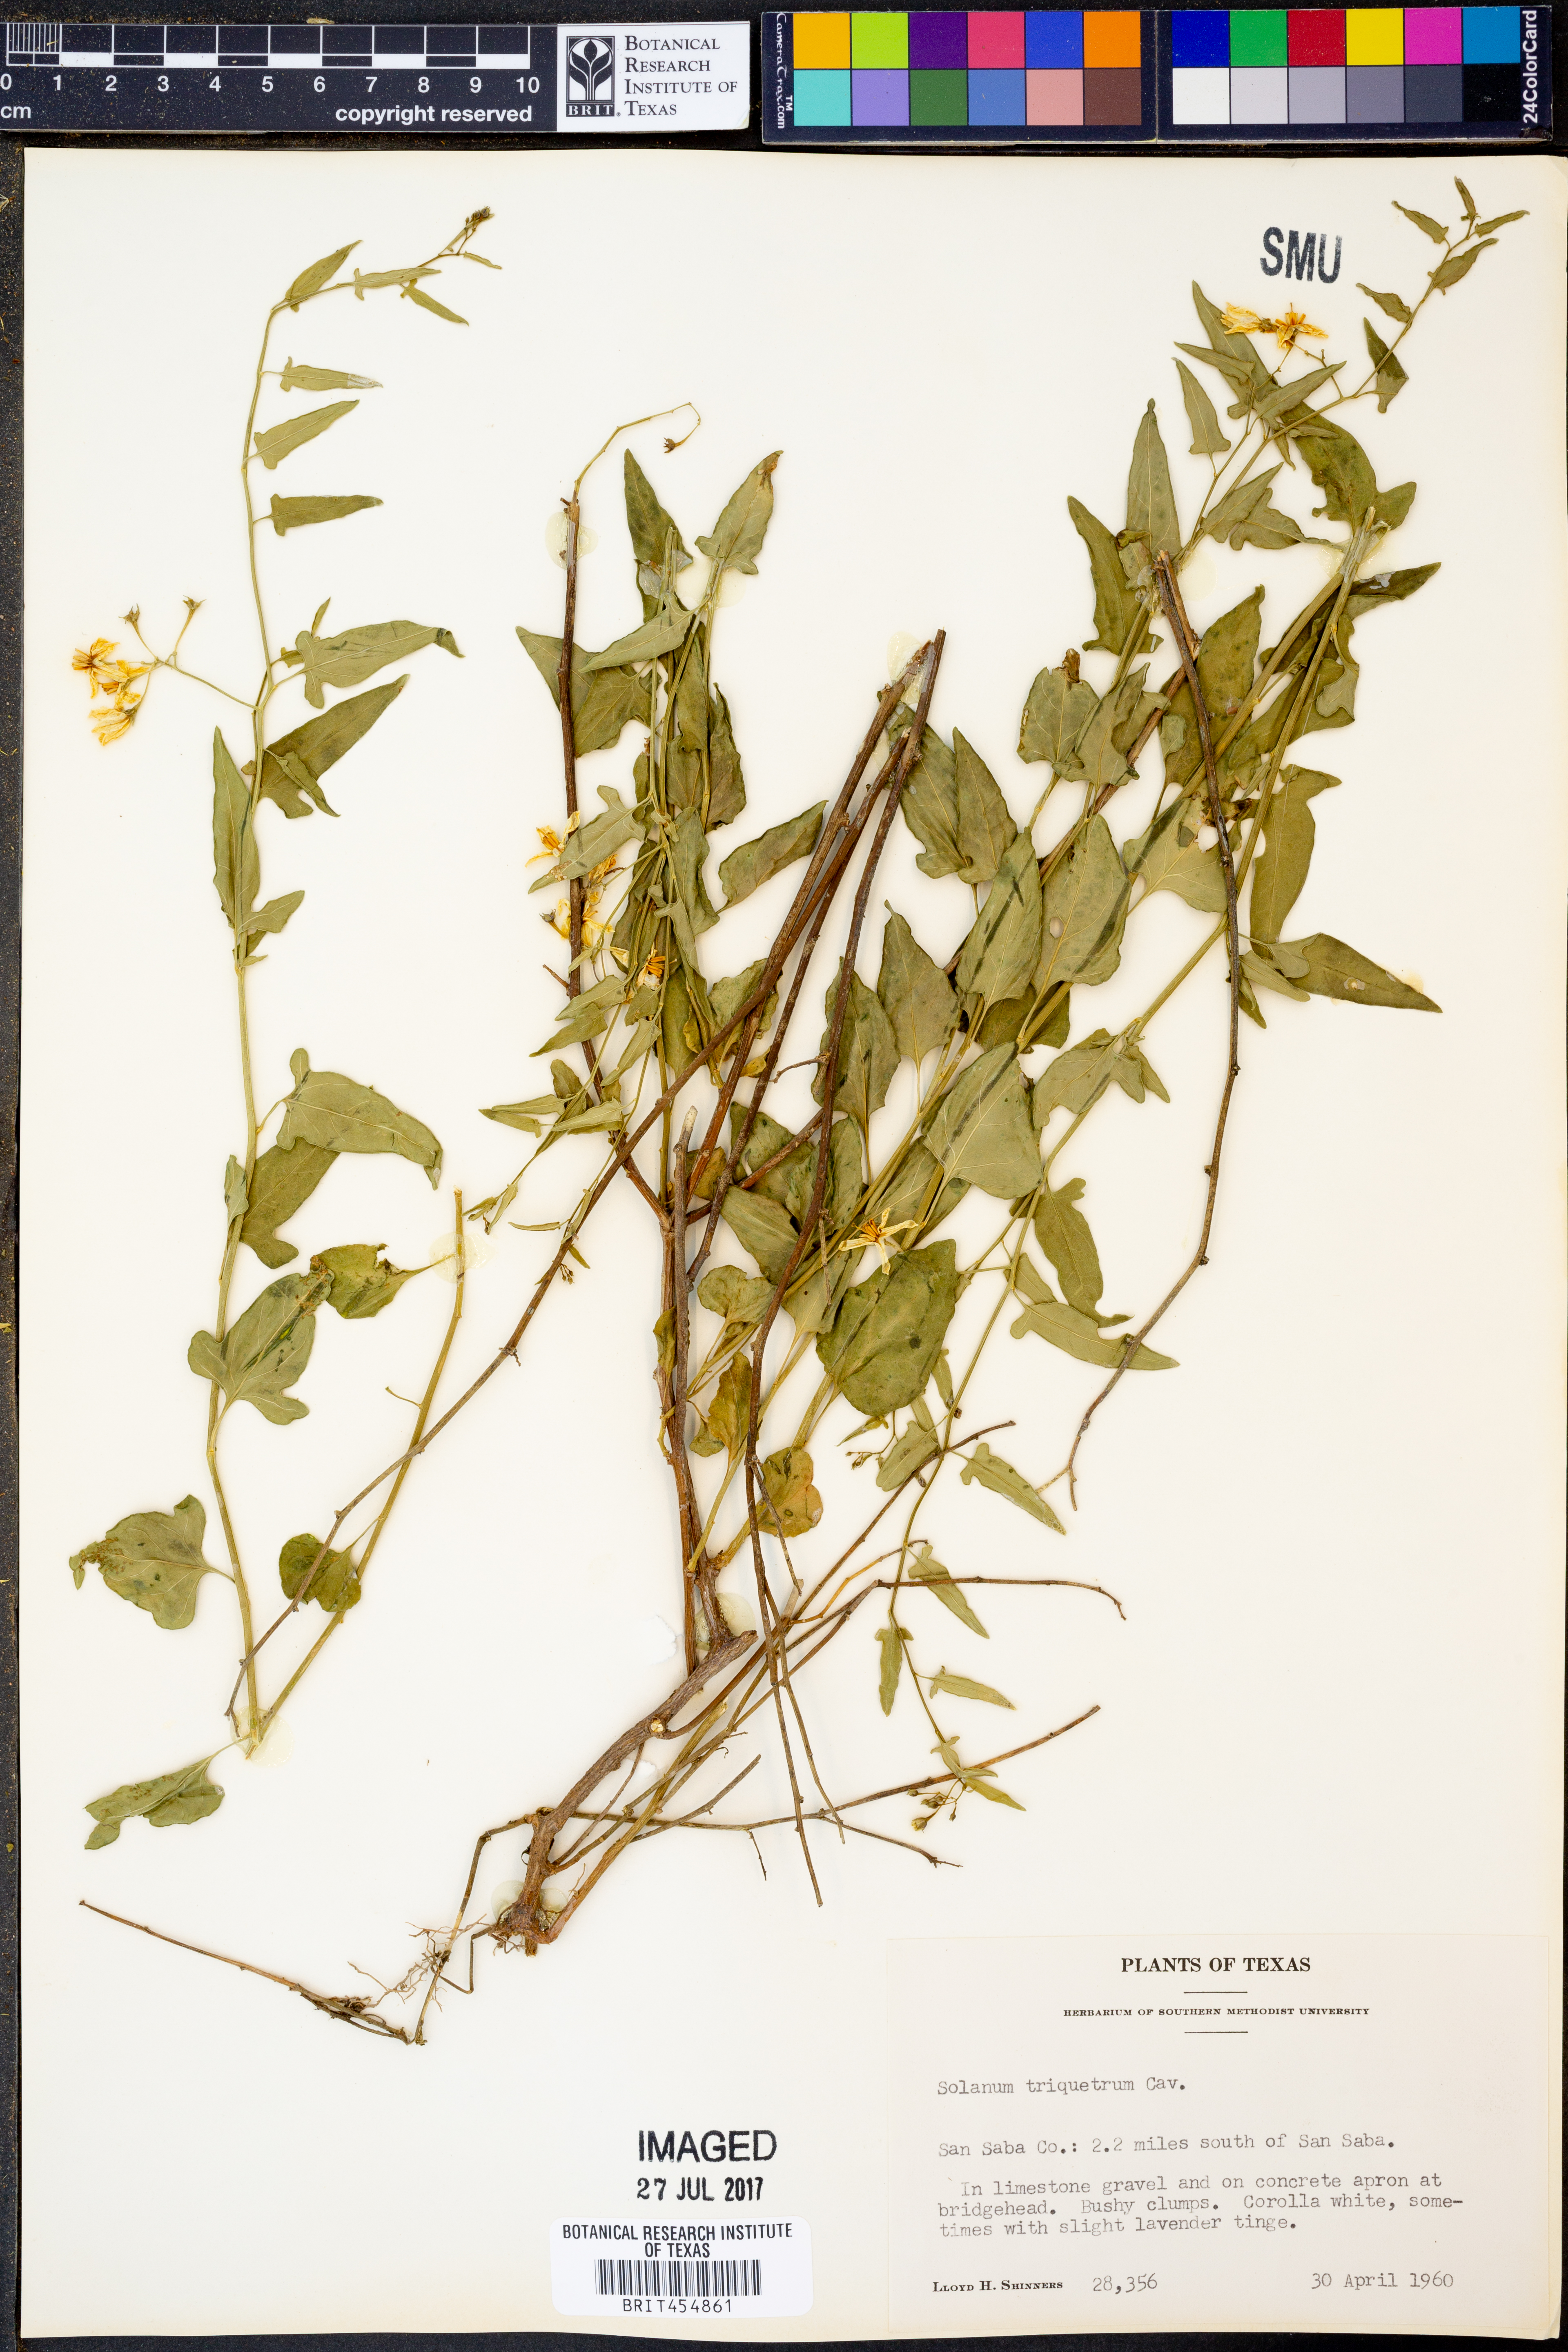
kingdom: Plantae
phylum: Tracheophyta
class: Magnoliopsida
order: Solanales
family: Solanaceae
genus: Solanum
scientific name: Solanum triquetrum
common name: Texas nightshade
